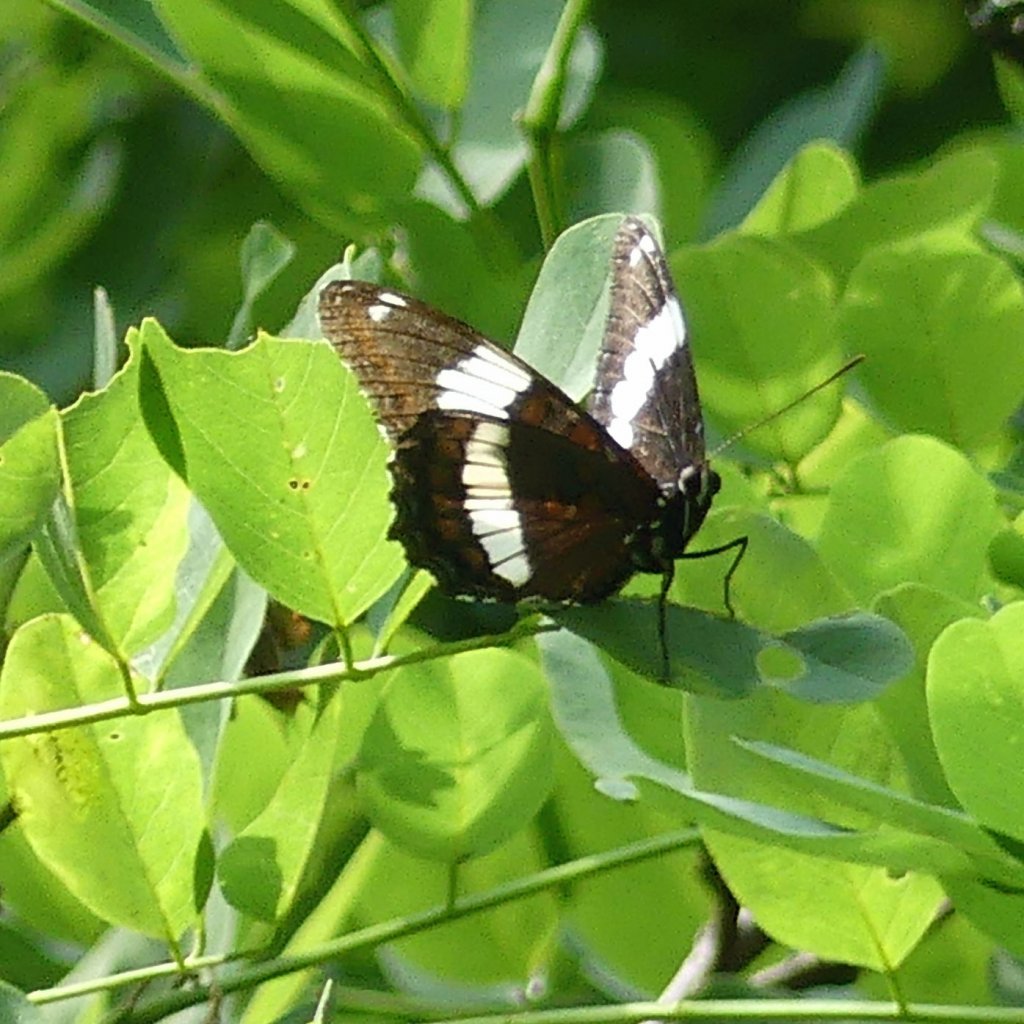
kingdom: Animalia
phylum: Arthropoda
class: Insecta
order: Lepidoptera
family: Nymphalidae
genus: Limenitis
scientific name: Limenitis arthemis
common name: Red-spotted Admiral
